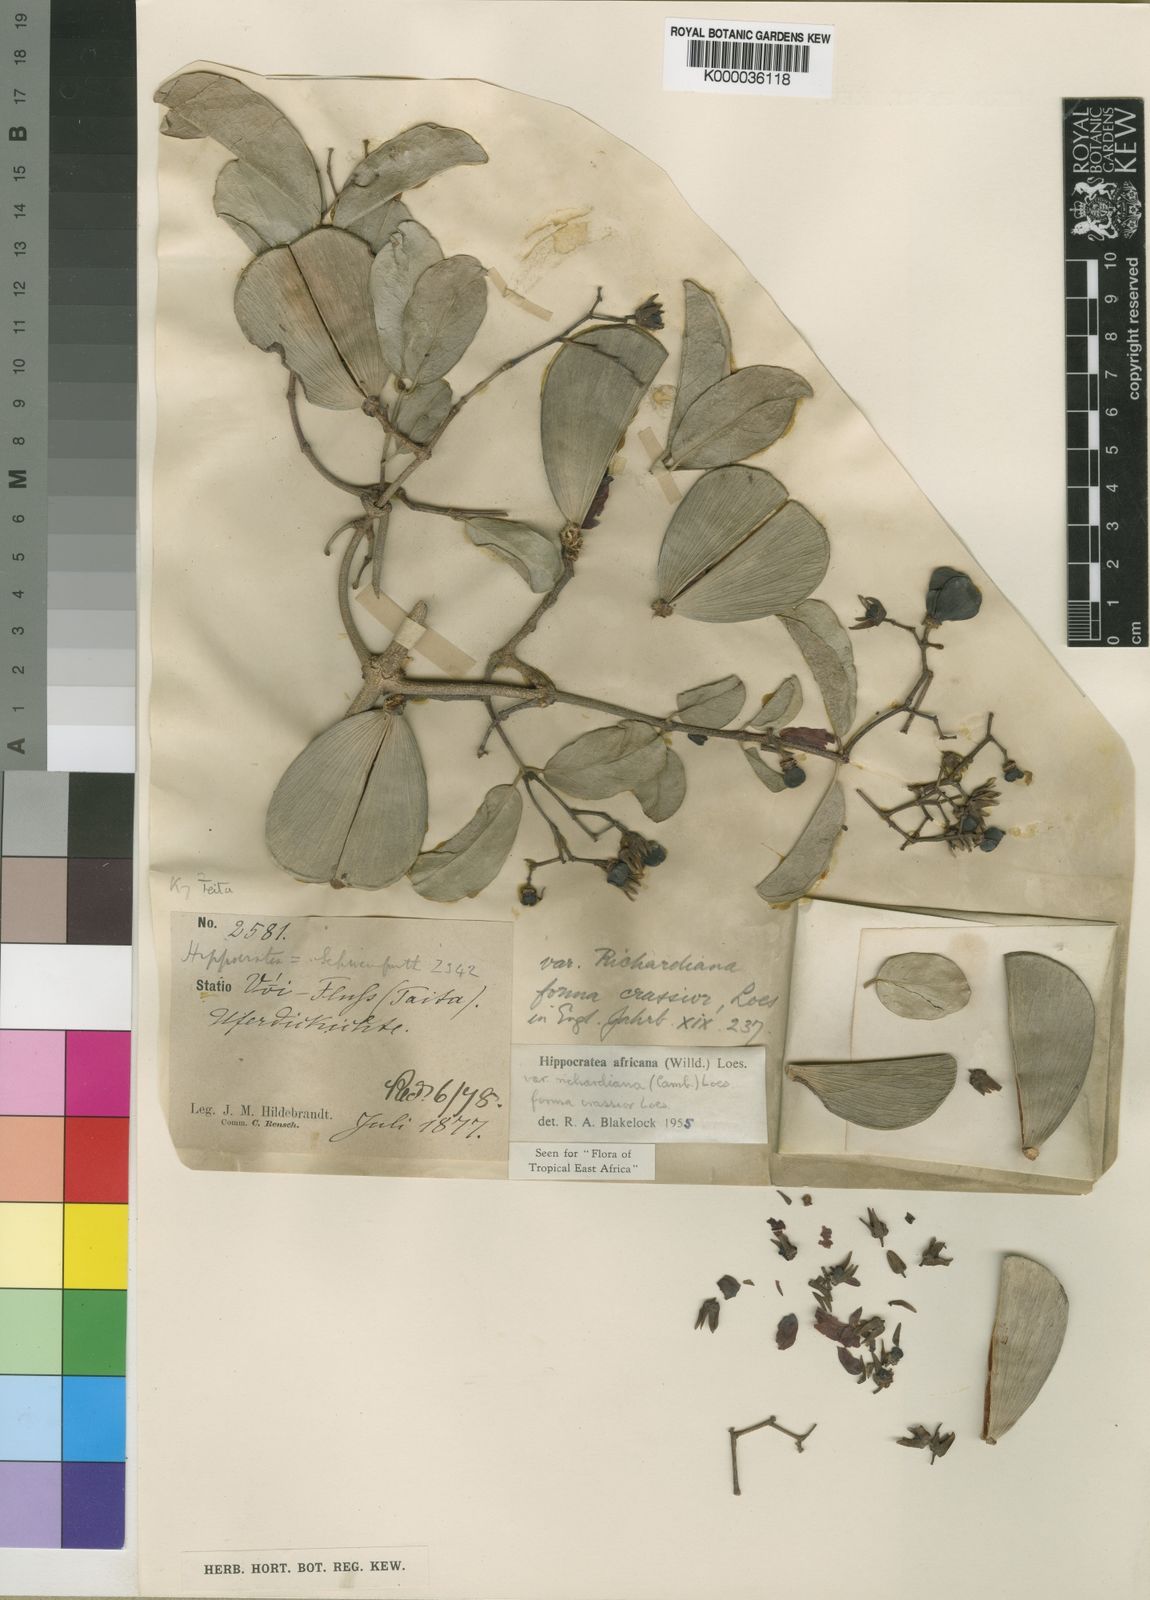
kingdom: Plantae
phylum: Tracheophyta
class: Magnoliopsida
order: Celastrales
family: Celastraceae
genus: Loeseneriella
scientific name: Loeseneriella
